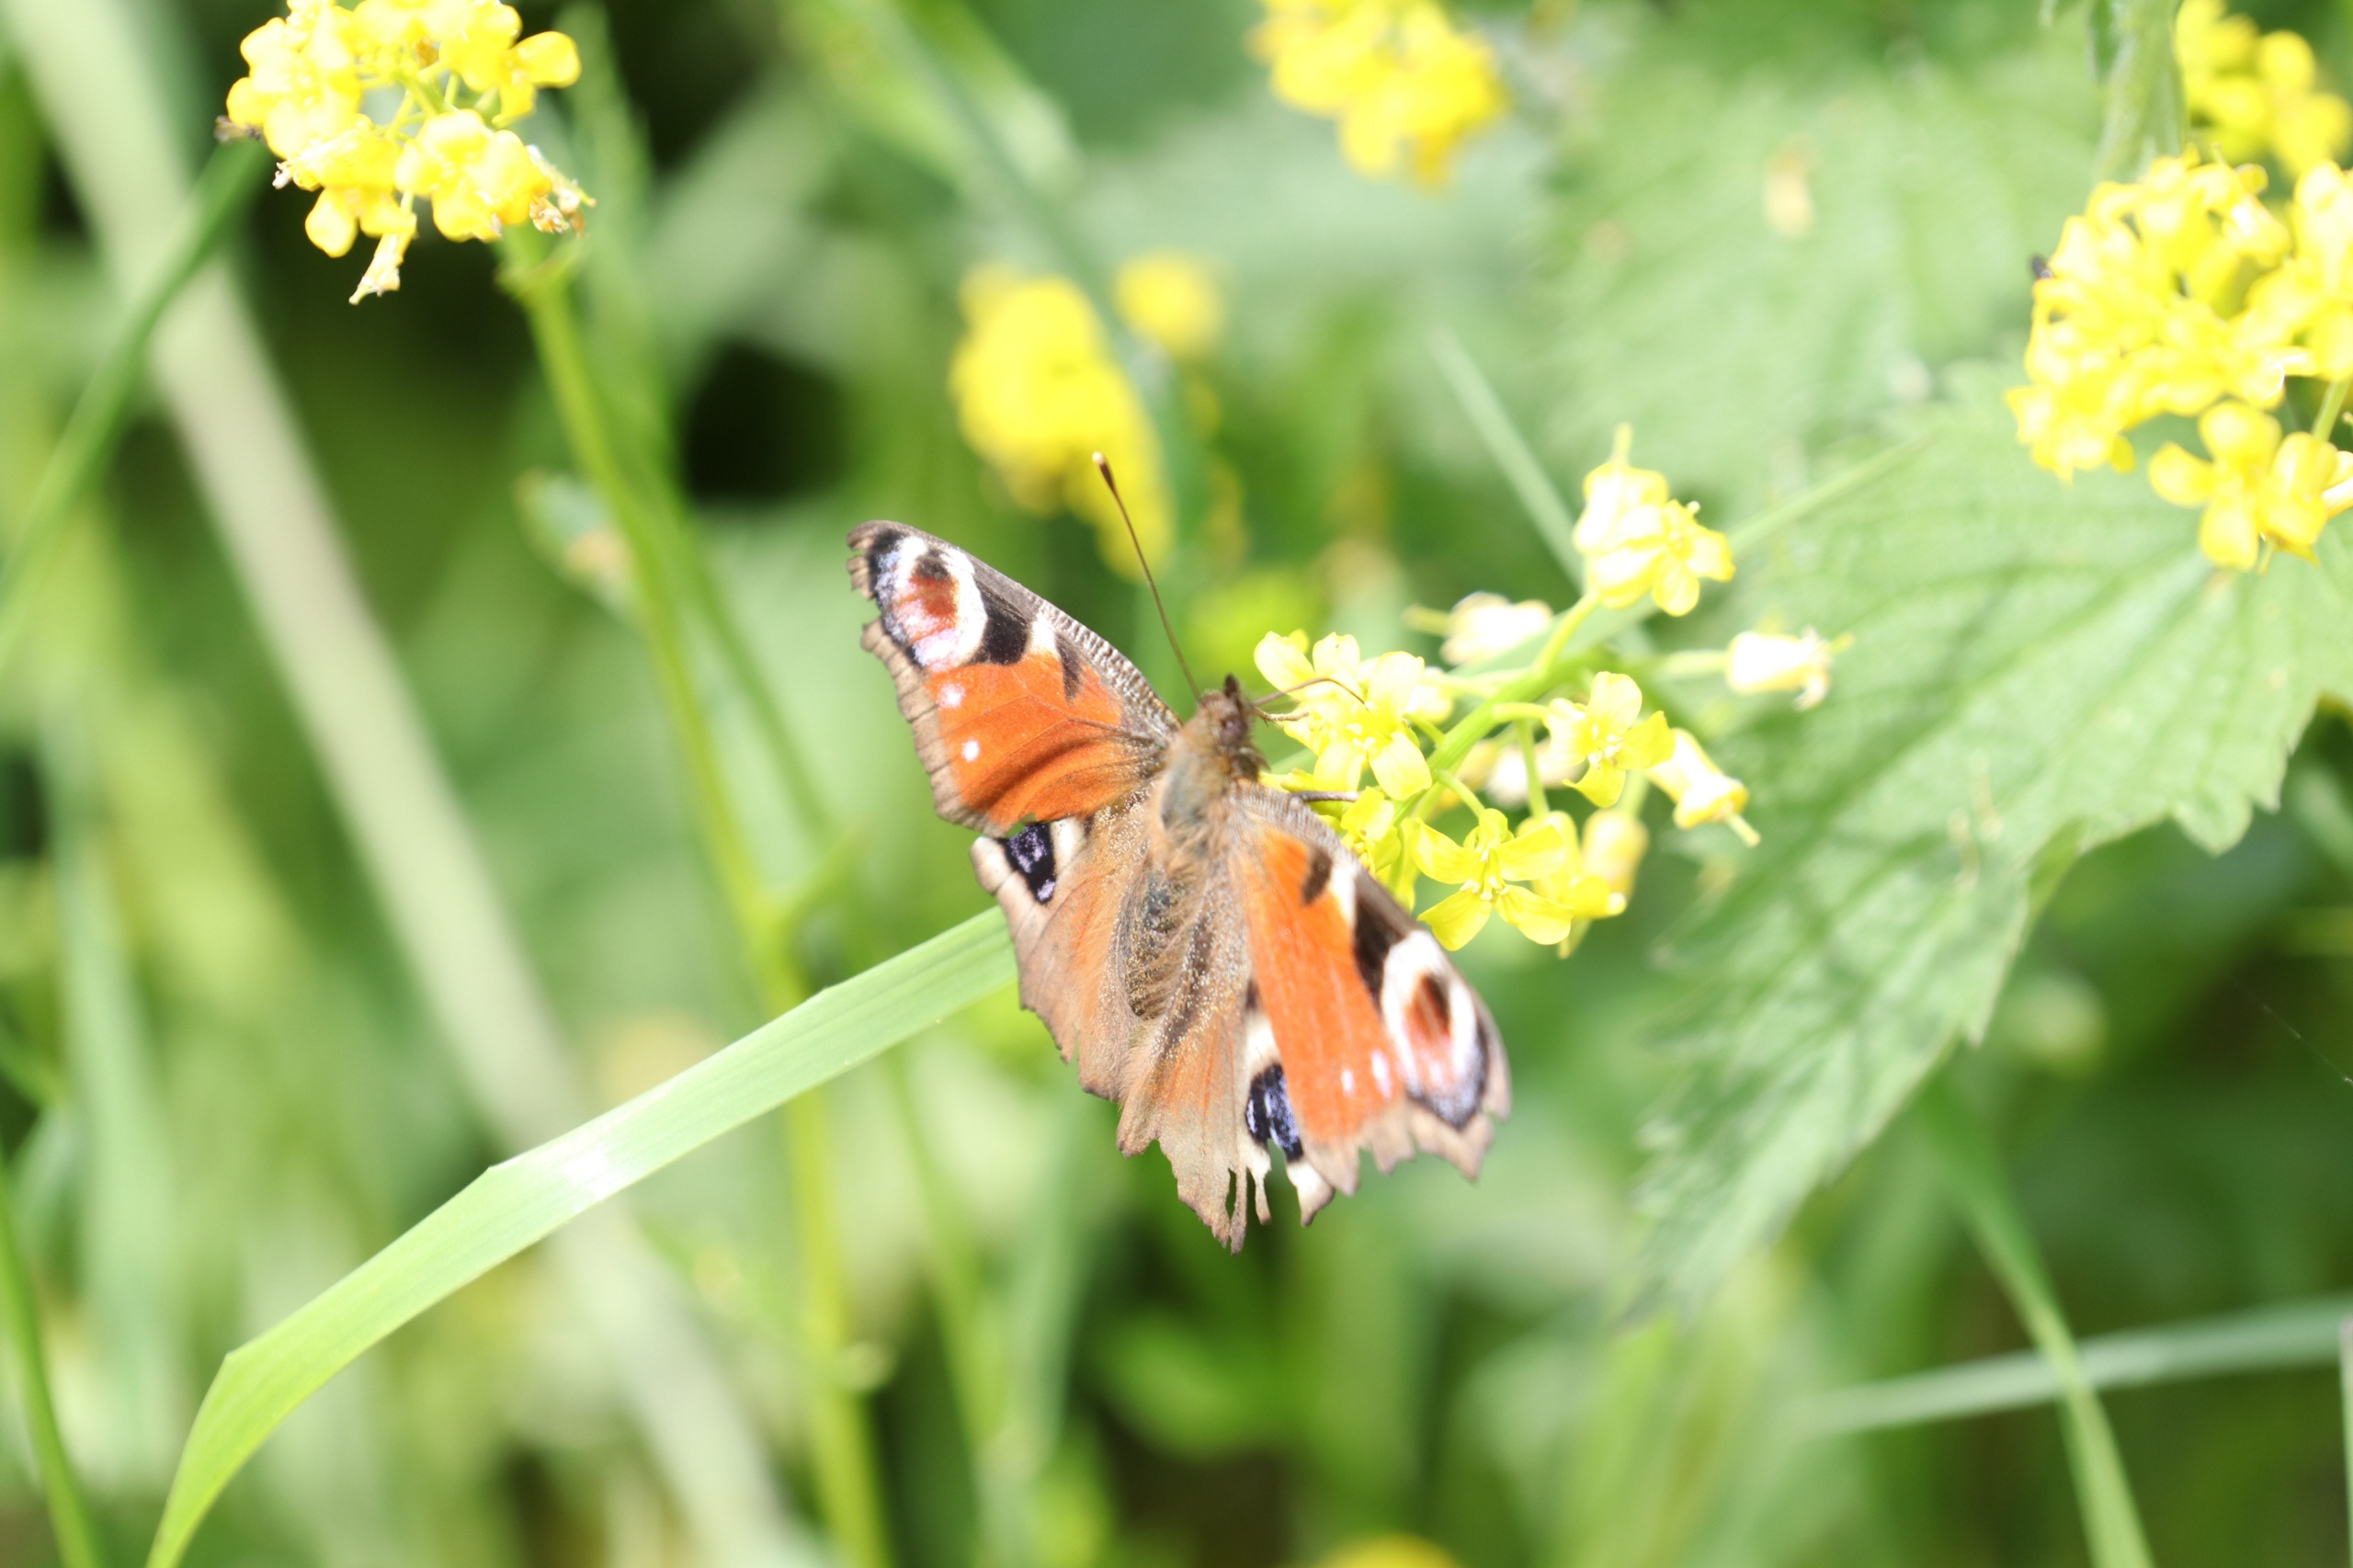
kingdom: Animalia
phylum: Arthropoda
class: Insecta
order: Lepidoptera
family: Nymphalidae
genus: Aglais
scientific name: Aglais io
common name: Dagpåfugleøje
